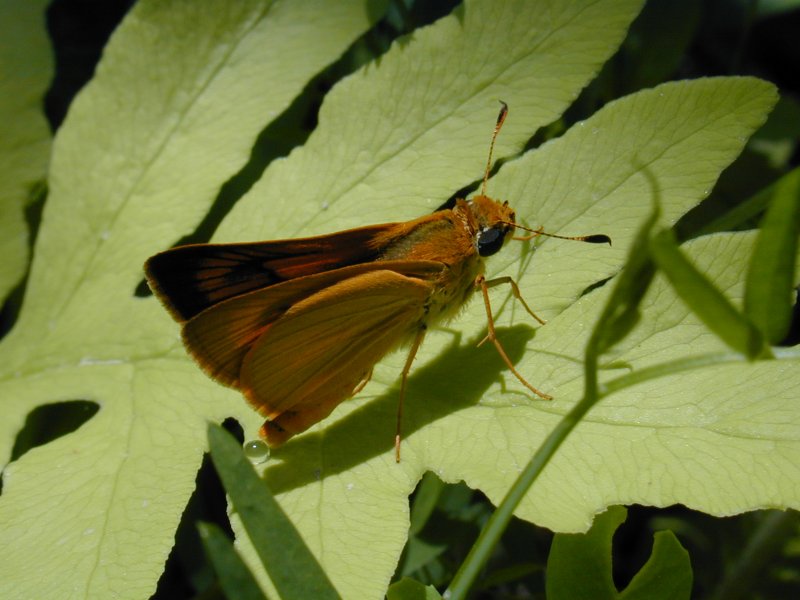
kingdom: Animalia
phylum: Arthropoda
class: Insecta
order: Lepidoptera
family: Hesperiidae
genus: Atrytone
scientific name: Atrytone delaware
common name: Delaware Skipper
